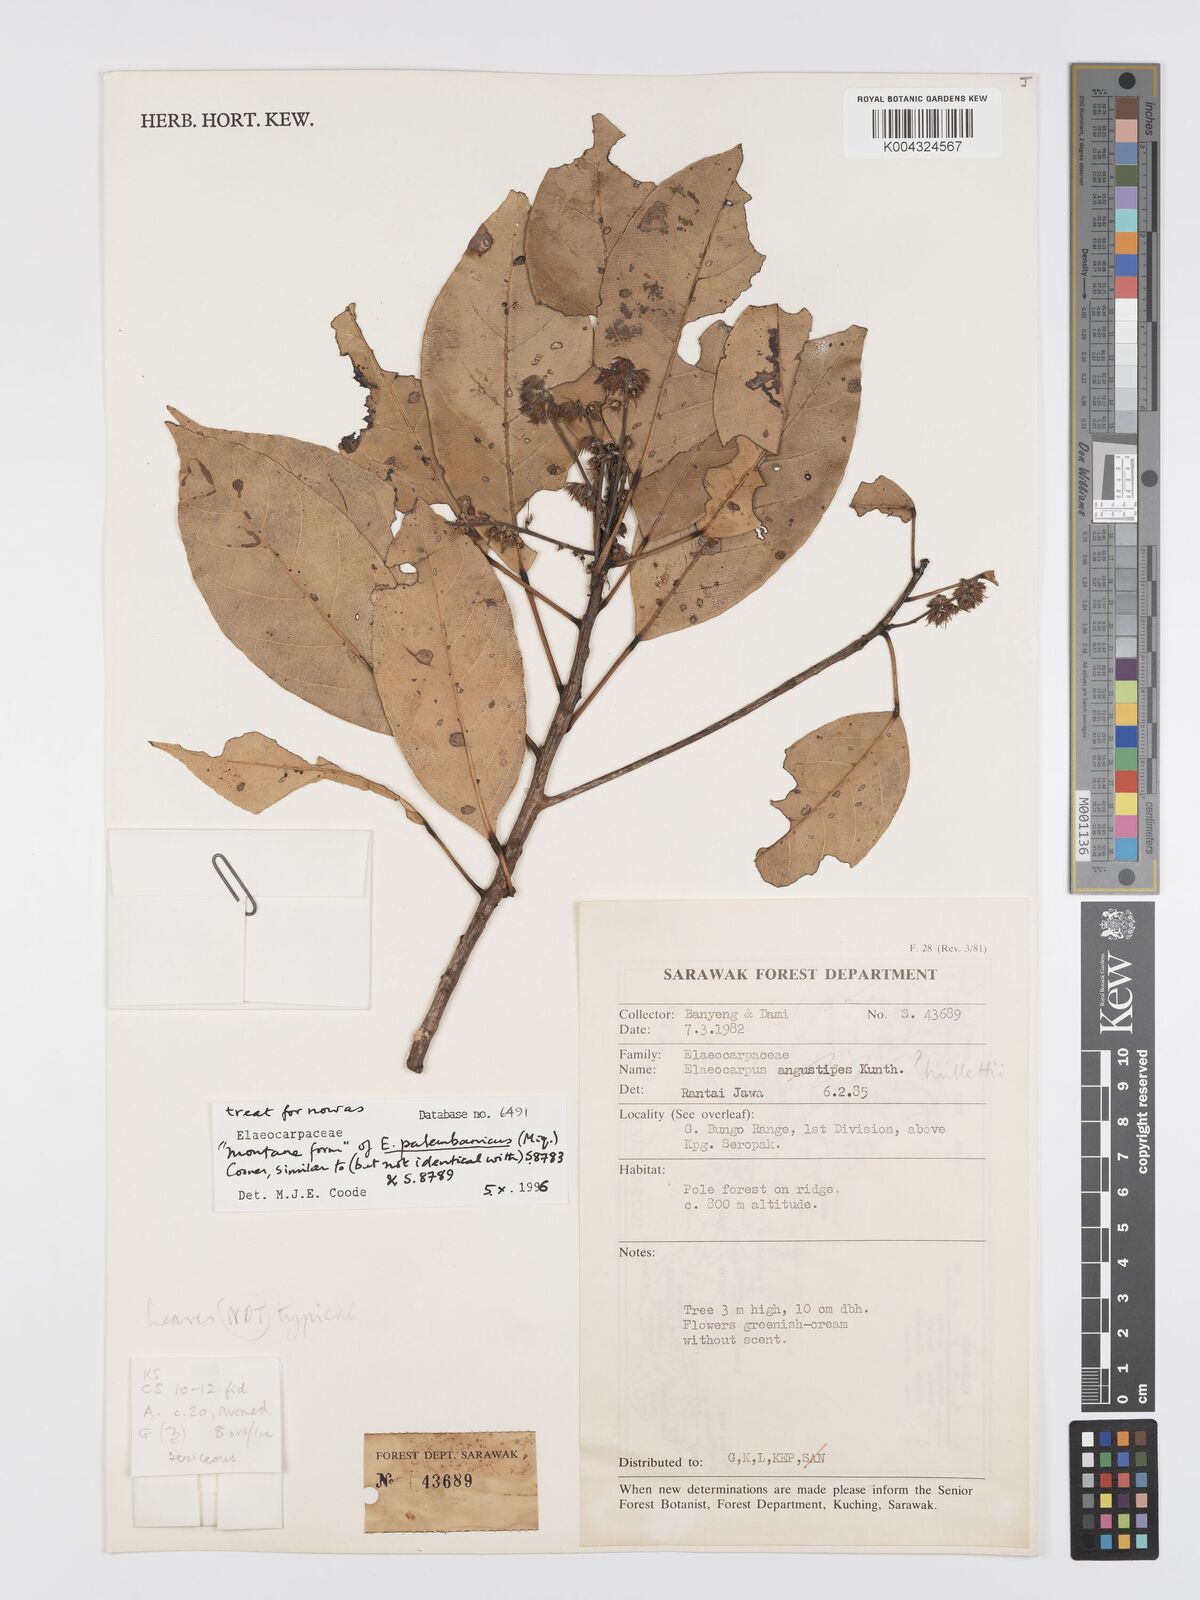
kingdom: Plantae
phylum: Tracheophyta
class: Magnoliopsida
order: Oxalidales
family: Elaeocarpaceae
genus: Elaeocarpus
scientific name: Elaeocarpus palembanicus
